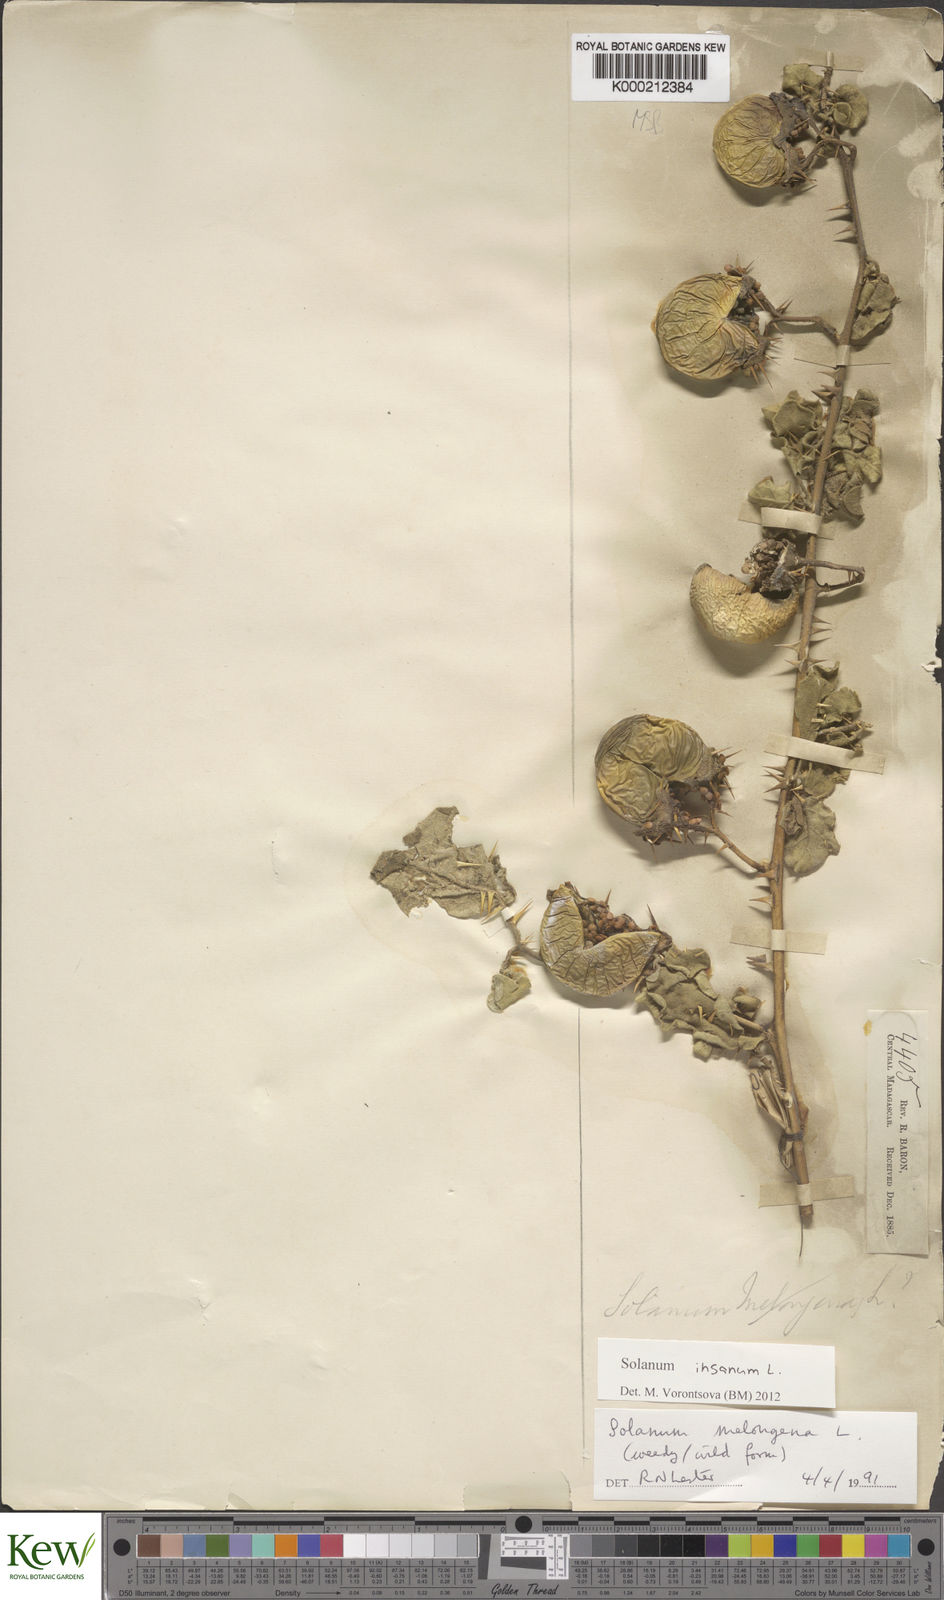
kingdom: Plantae
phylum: Tracheophyta
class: Magnoliopsida
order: Solanales
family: Solanaceae
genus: Solanum
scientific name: Solanum melongena
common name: Eggplant
